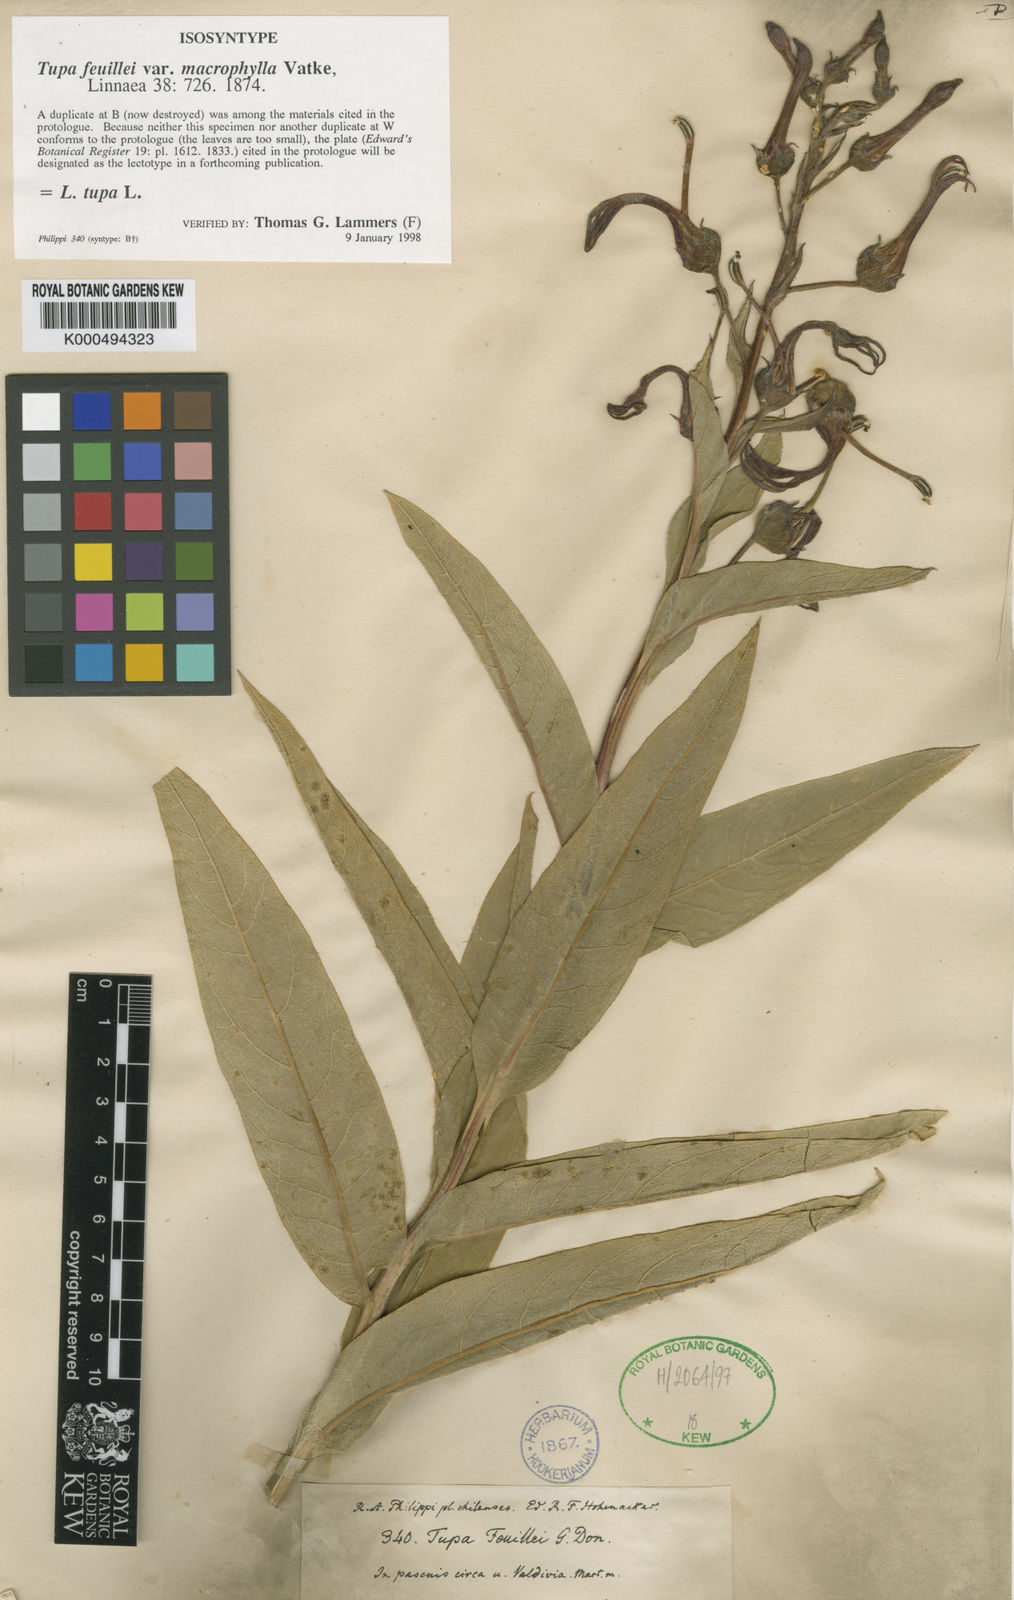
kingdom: Plantae
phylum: Tracheophyta
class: Magnoliopsida
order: Asterales
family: Campanulaceae
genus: Lobelia
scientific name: Lobelia tupa
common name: Devil's-tobacco
